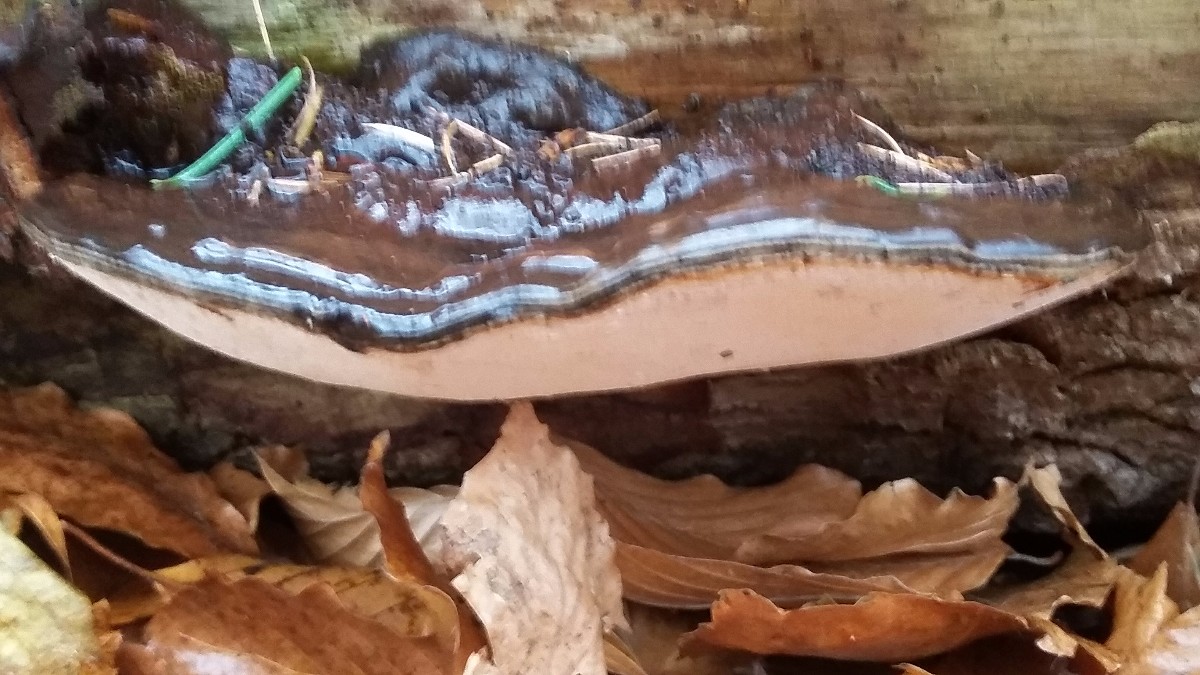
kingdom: Fungi
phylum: Basidiomycota
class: Agaricomycetes
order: Polyporales
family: Polyporaceae
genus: Ganoderma
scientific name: Ganoderma applanatum
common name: flad lakporesvamp
